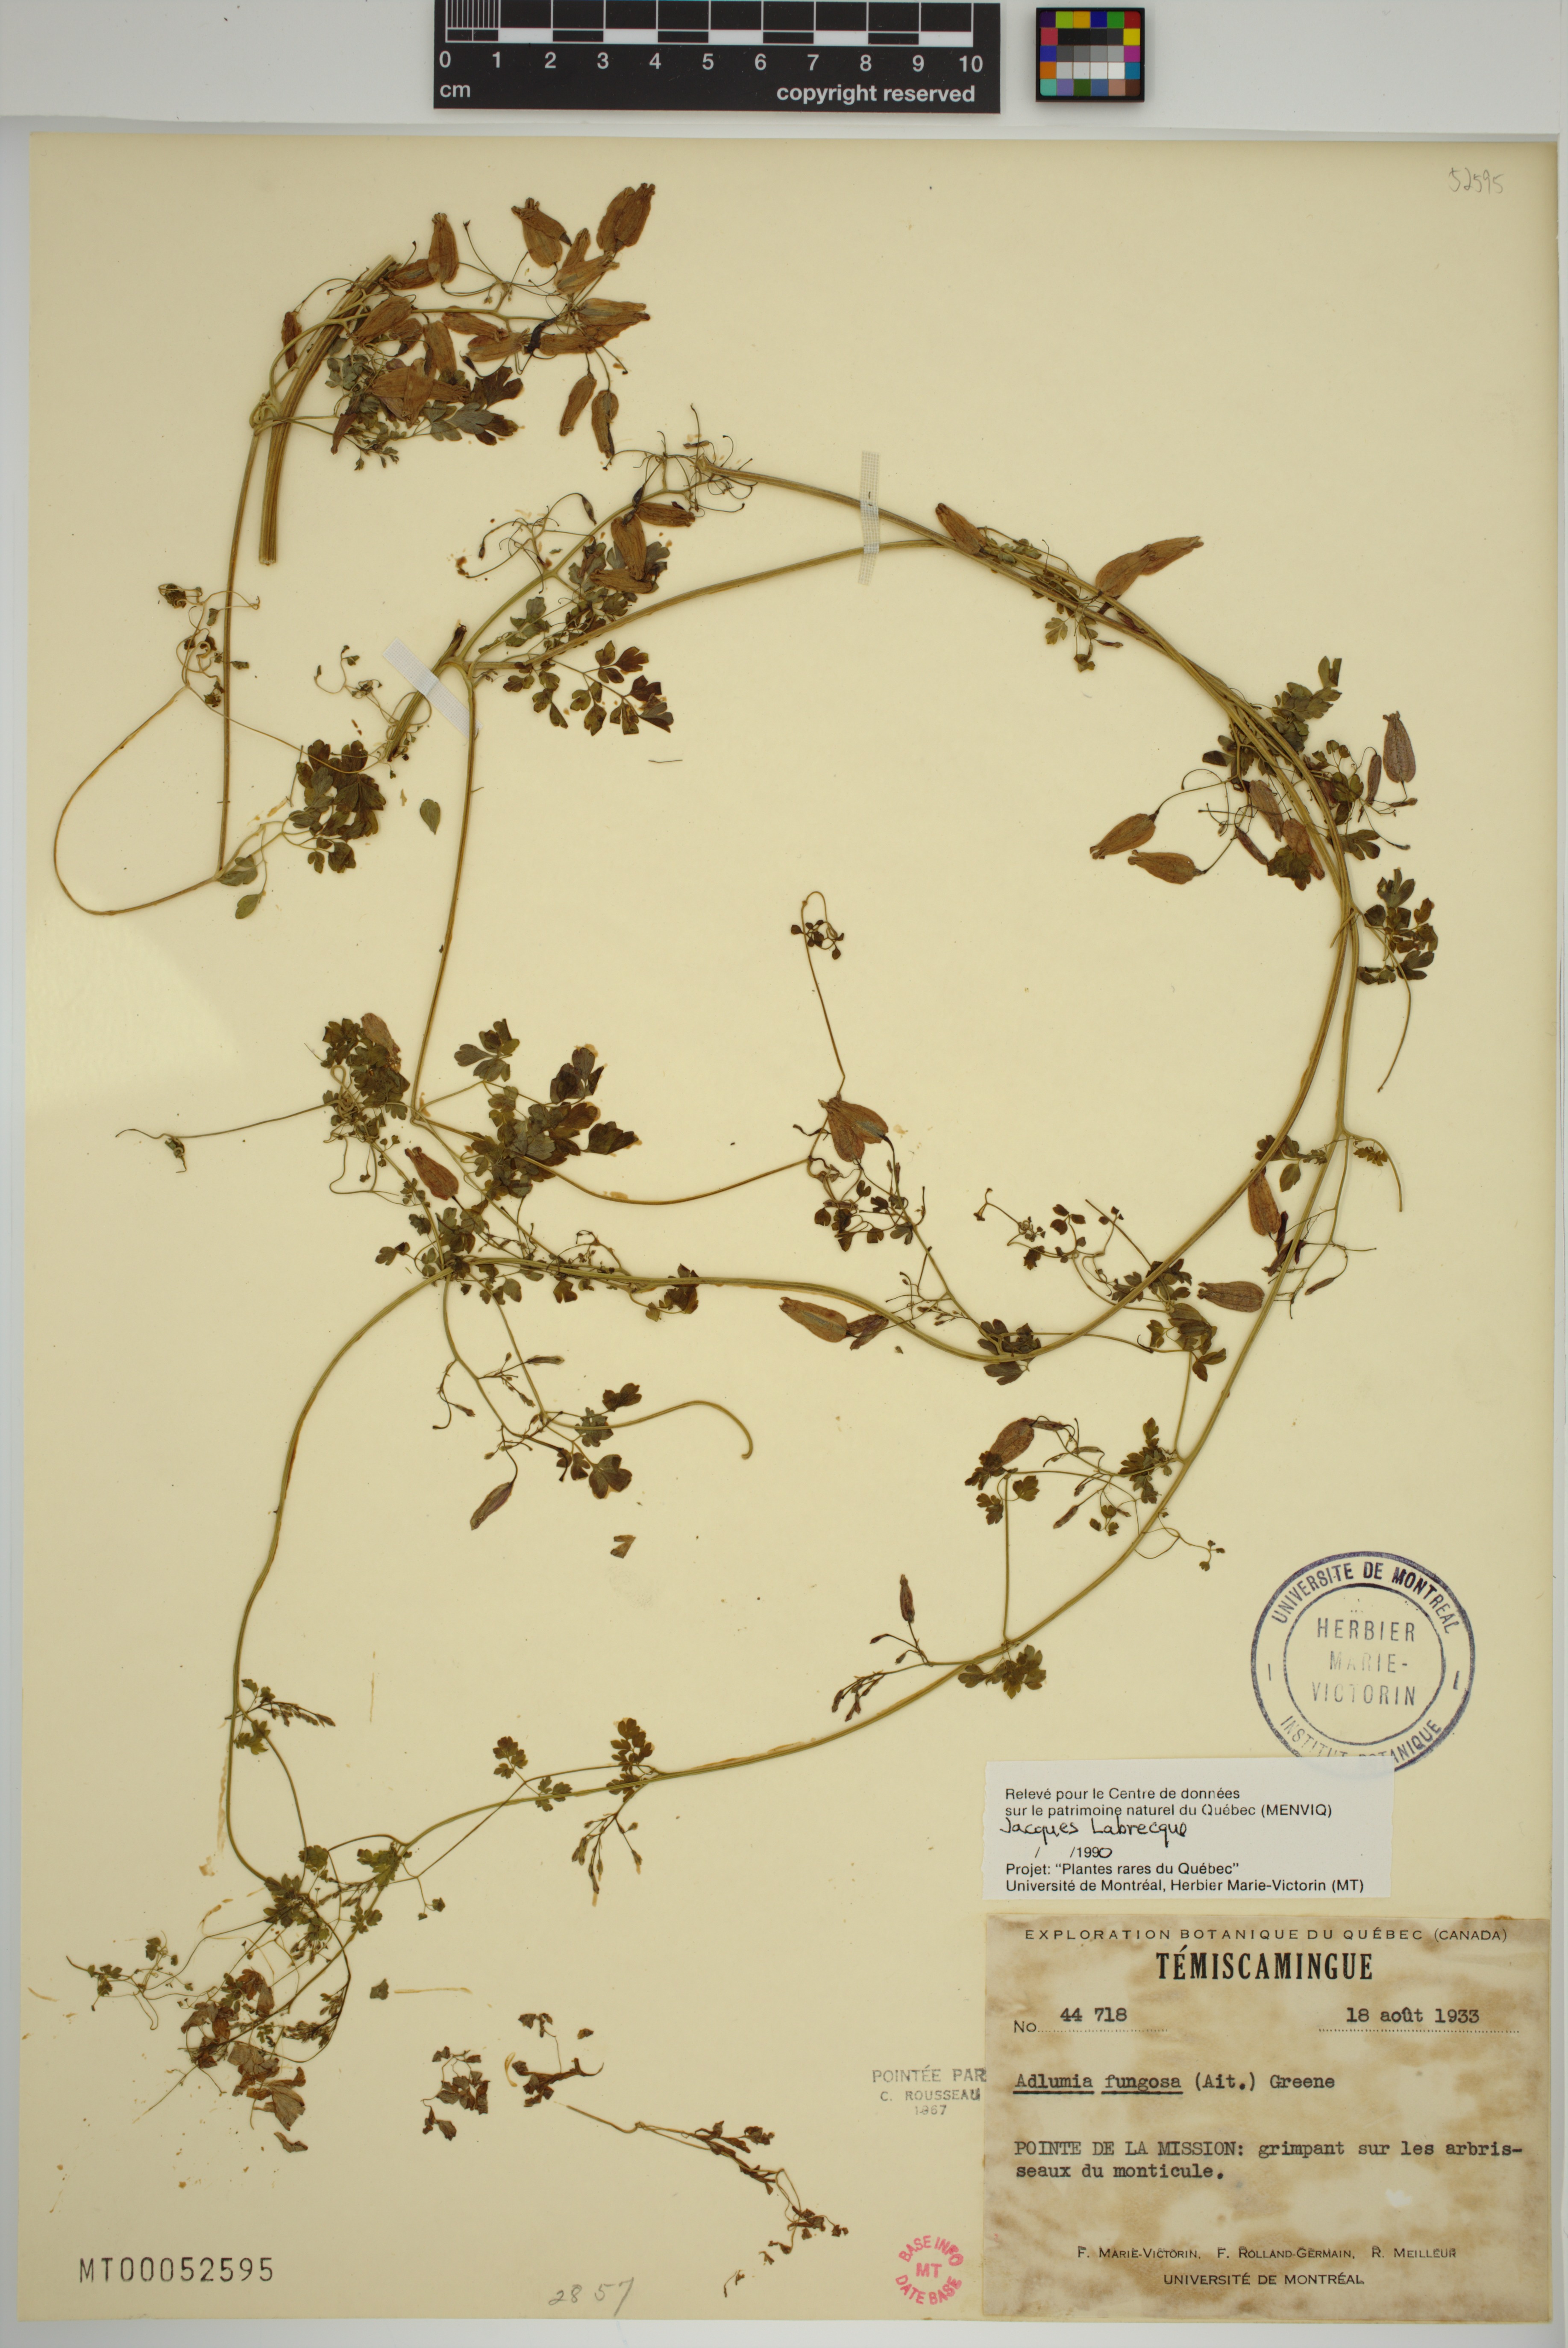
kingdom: Plantae
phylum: Tracheophyta
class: Magnoliopsida
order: Ranunculales
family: Papaveraceae
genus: Adlumia
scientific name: Adlumia fungosa
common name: Mountain-fringe
